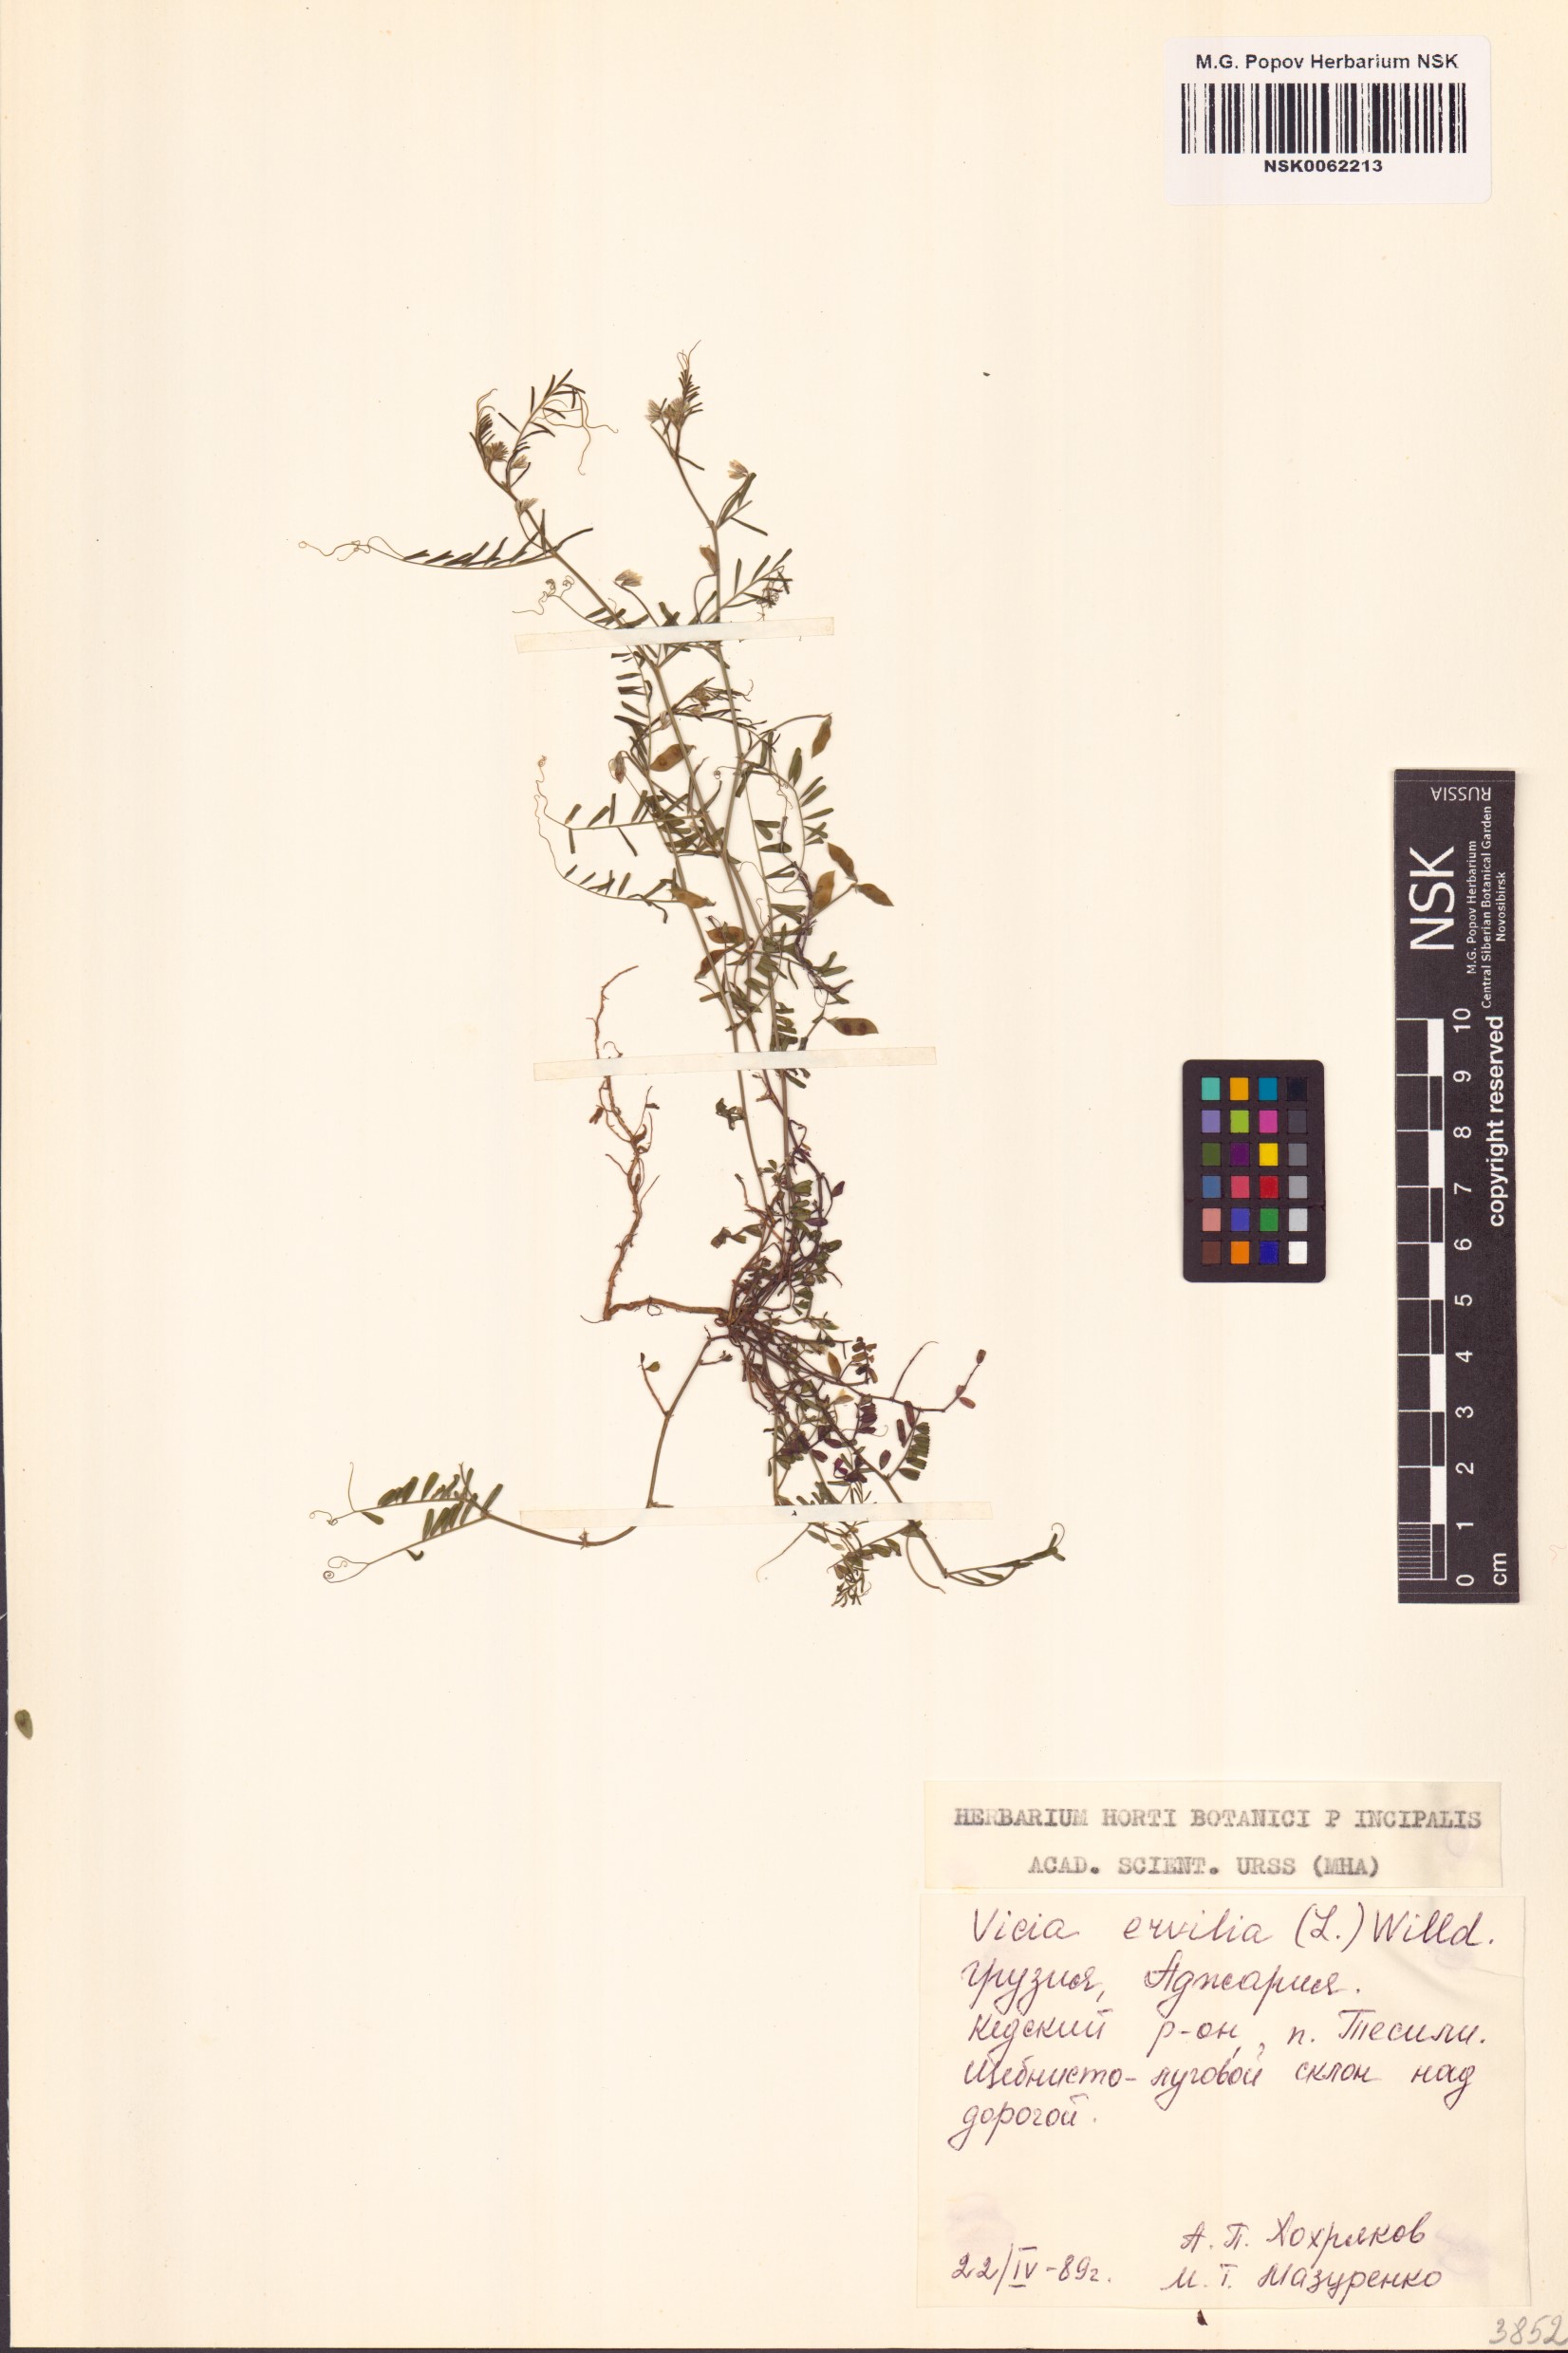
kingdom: Plantae
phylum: Tracheophyta
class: Magnoliopsida
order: Fabales
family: Fabaceae
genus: Vicia
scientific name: Vicia ervilia
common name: Bitter vetch
